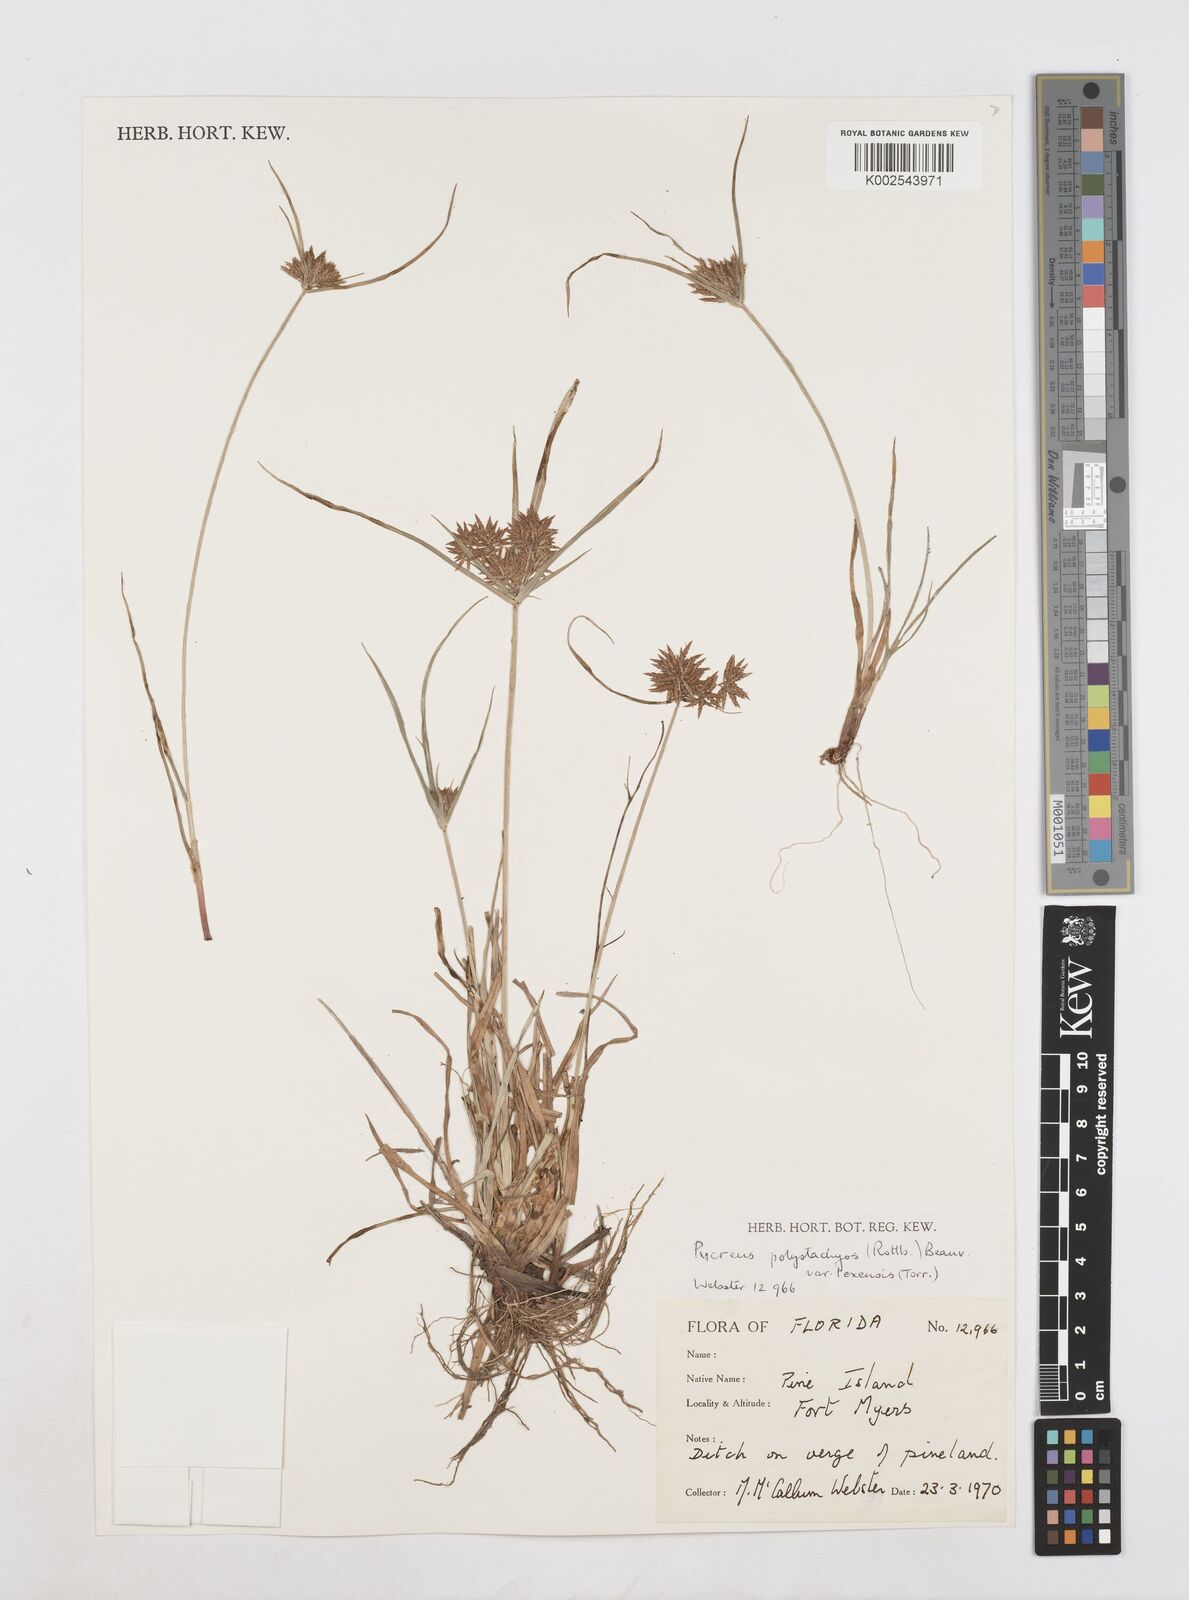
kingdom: Plantae
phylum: Tracheophyta
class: Liliopsida
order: Poales
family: Cyperaceae
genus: Cyperus
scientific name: Cyperus polystachyos
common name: Bunchy flat sedge
